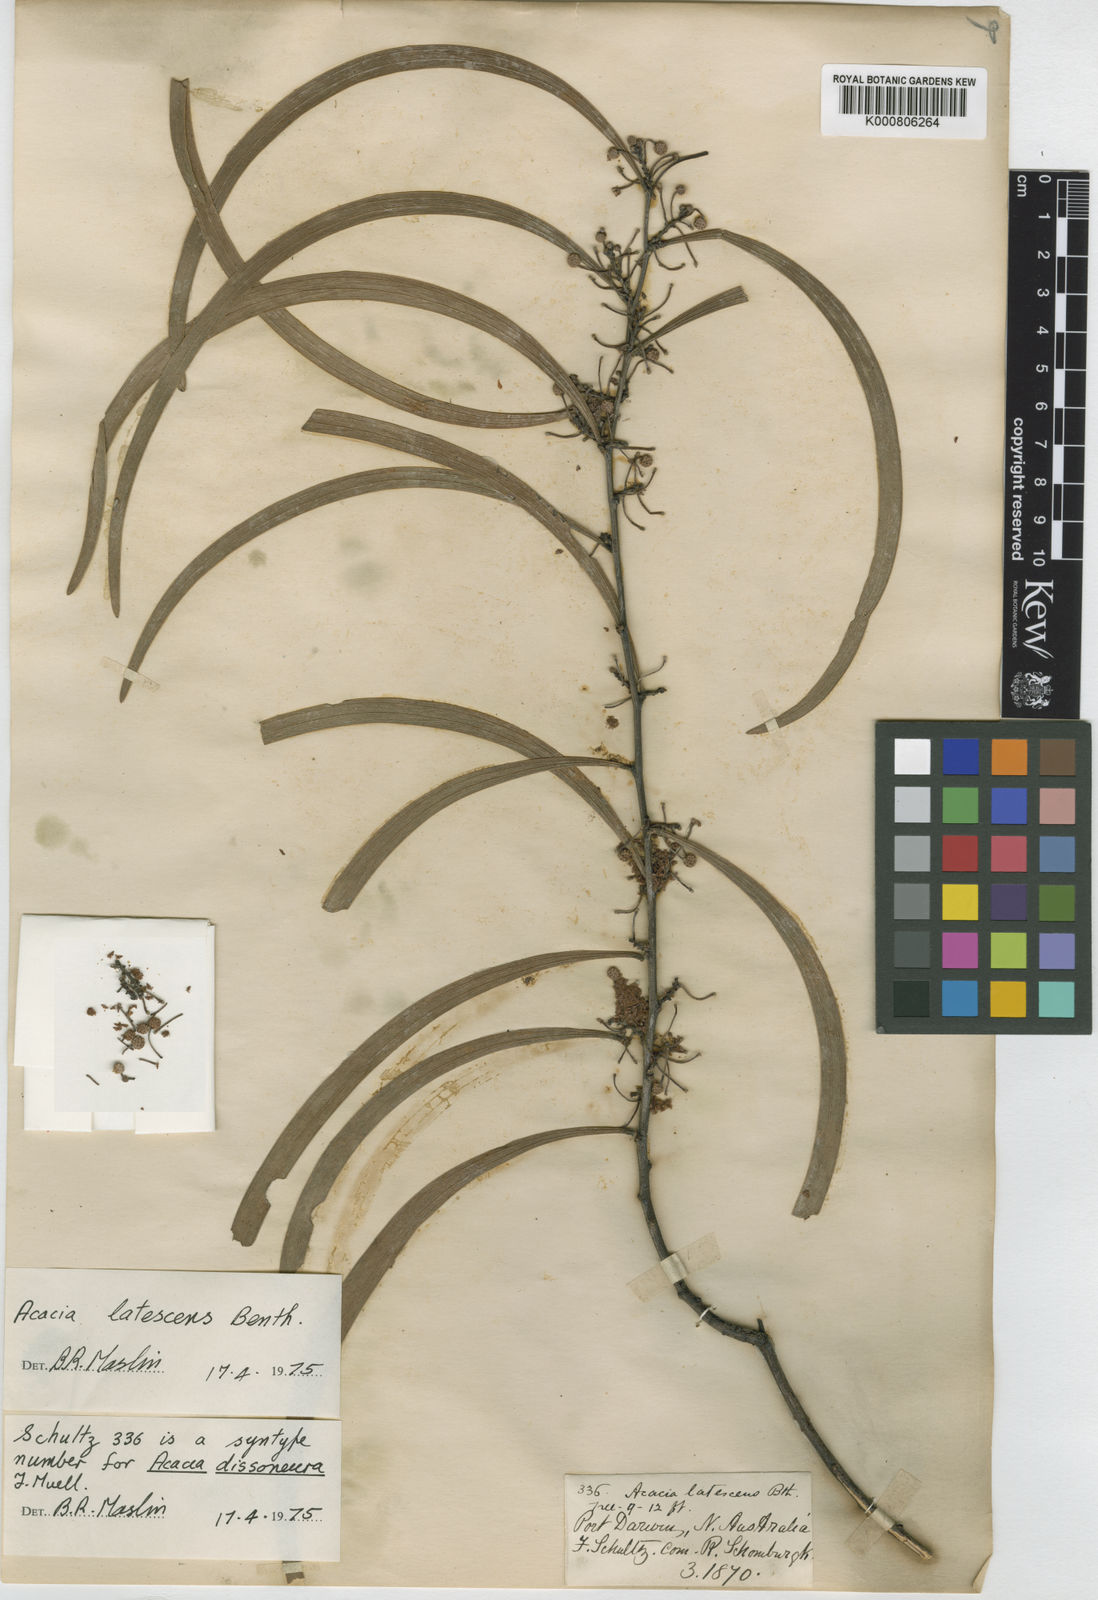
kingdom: Plantae
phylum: Tracheophyta
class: Magnoliopsida
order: Fabales
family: Fabaceae
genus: Acacia
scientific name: Acacia latescens
